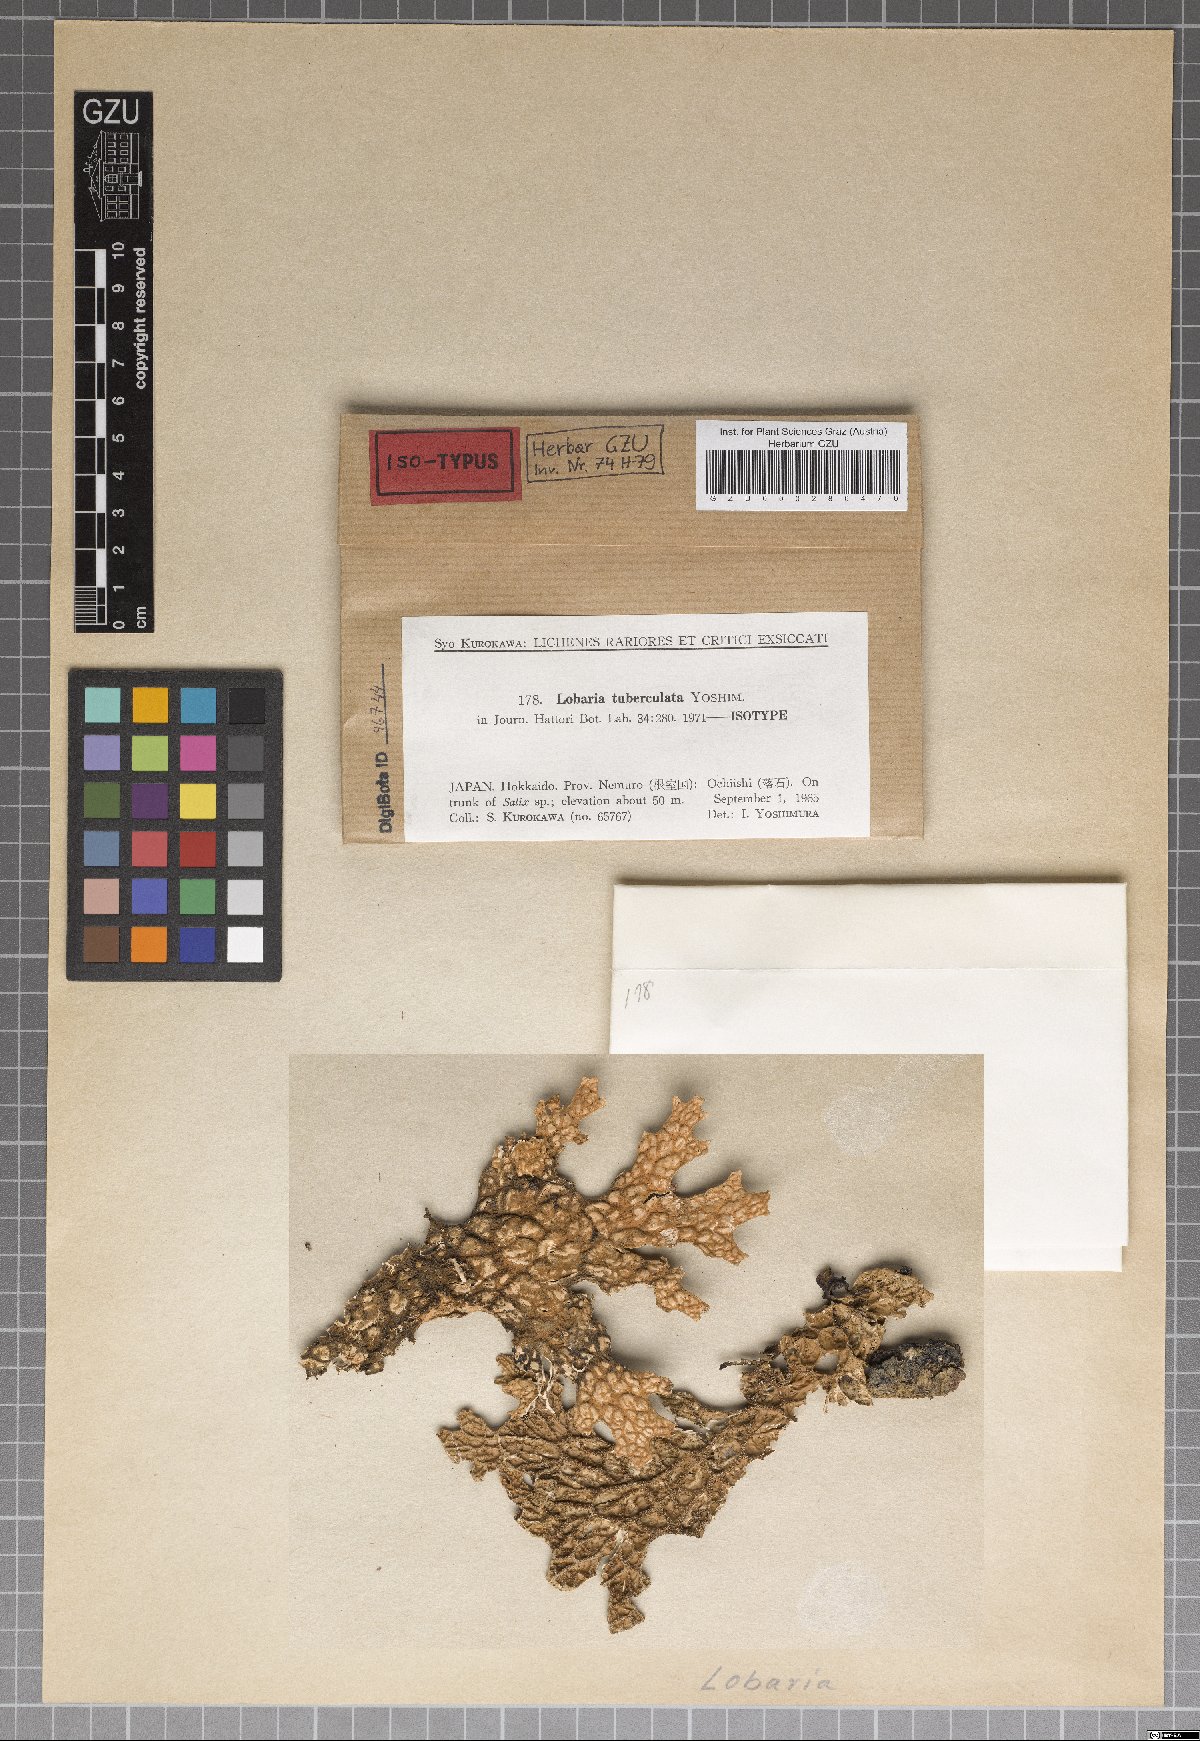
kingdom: Fungi
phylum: Ascomycota
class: Lecanoromycetes
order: Peltigerales
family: Lobariaceae
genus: Lobaria
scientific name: Lobaria tuberculata
